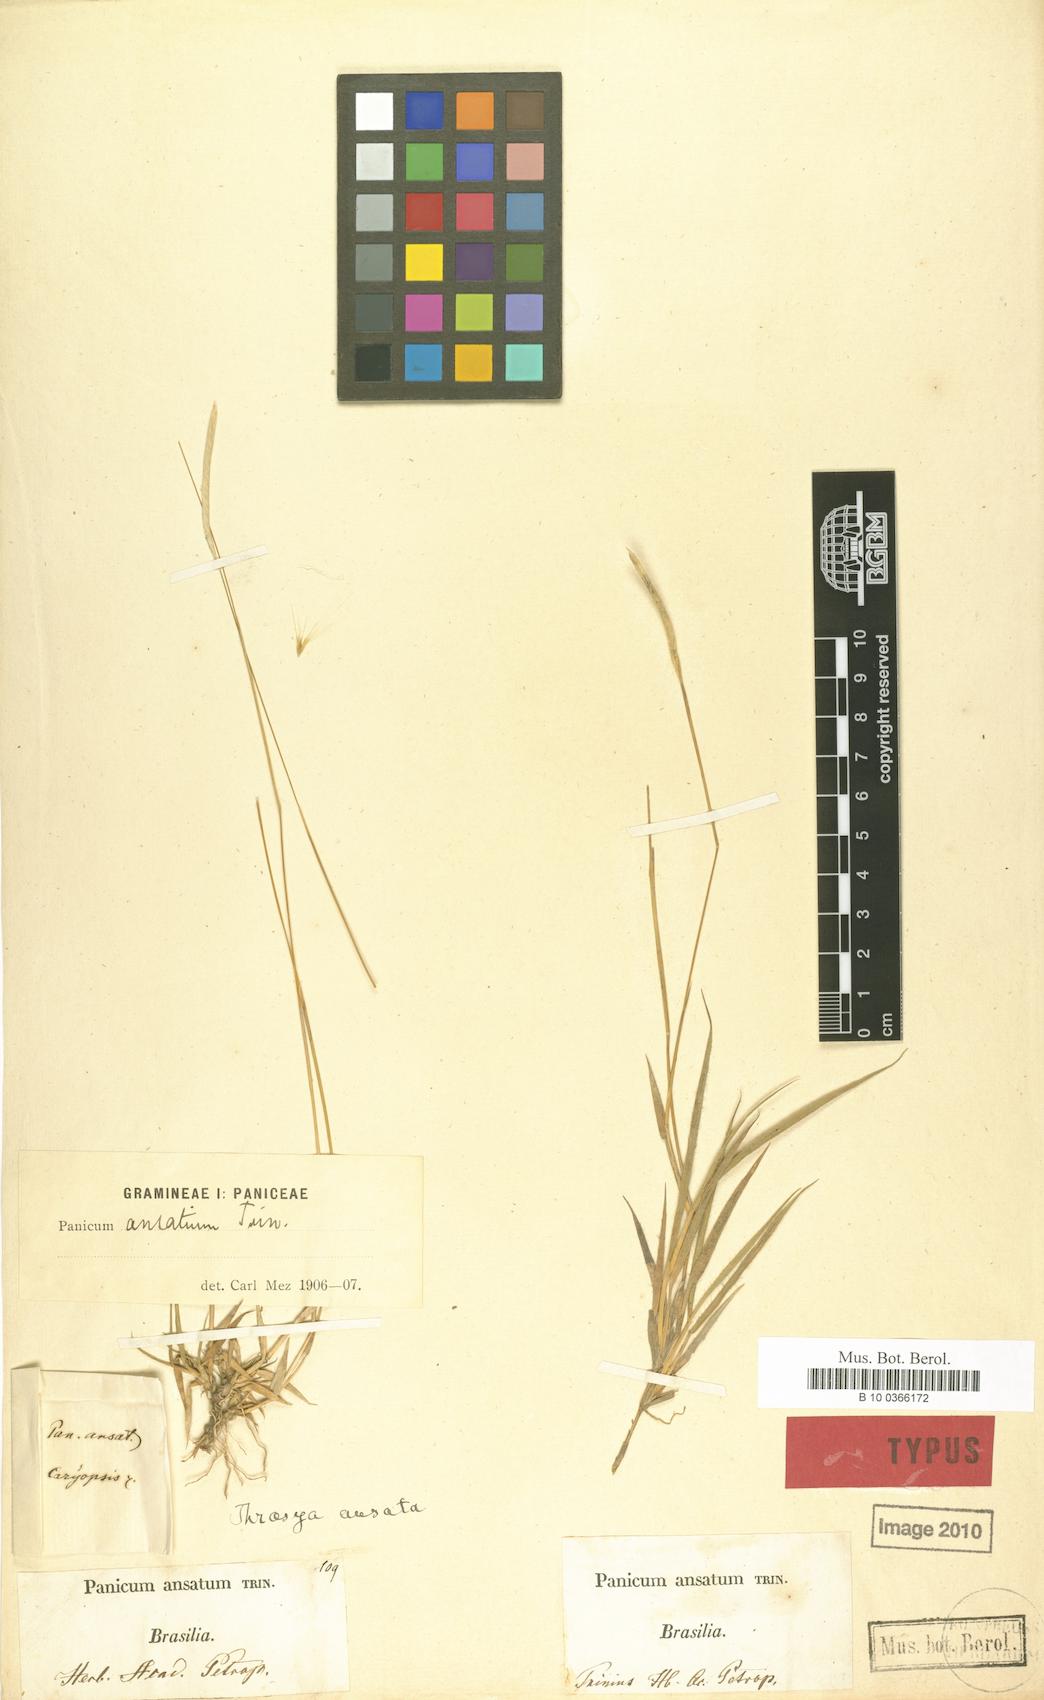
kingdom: Plantae
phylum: Tracheophyta
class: Liliopsida
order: Poales
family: Poaceae
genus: Mesosetum
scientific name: Mesosetum ansatum
